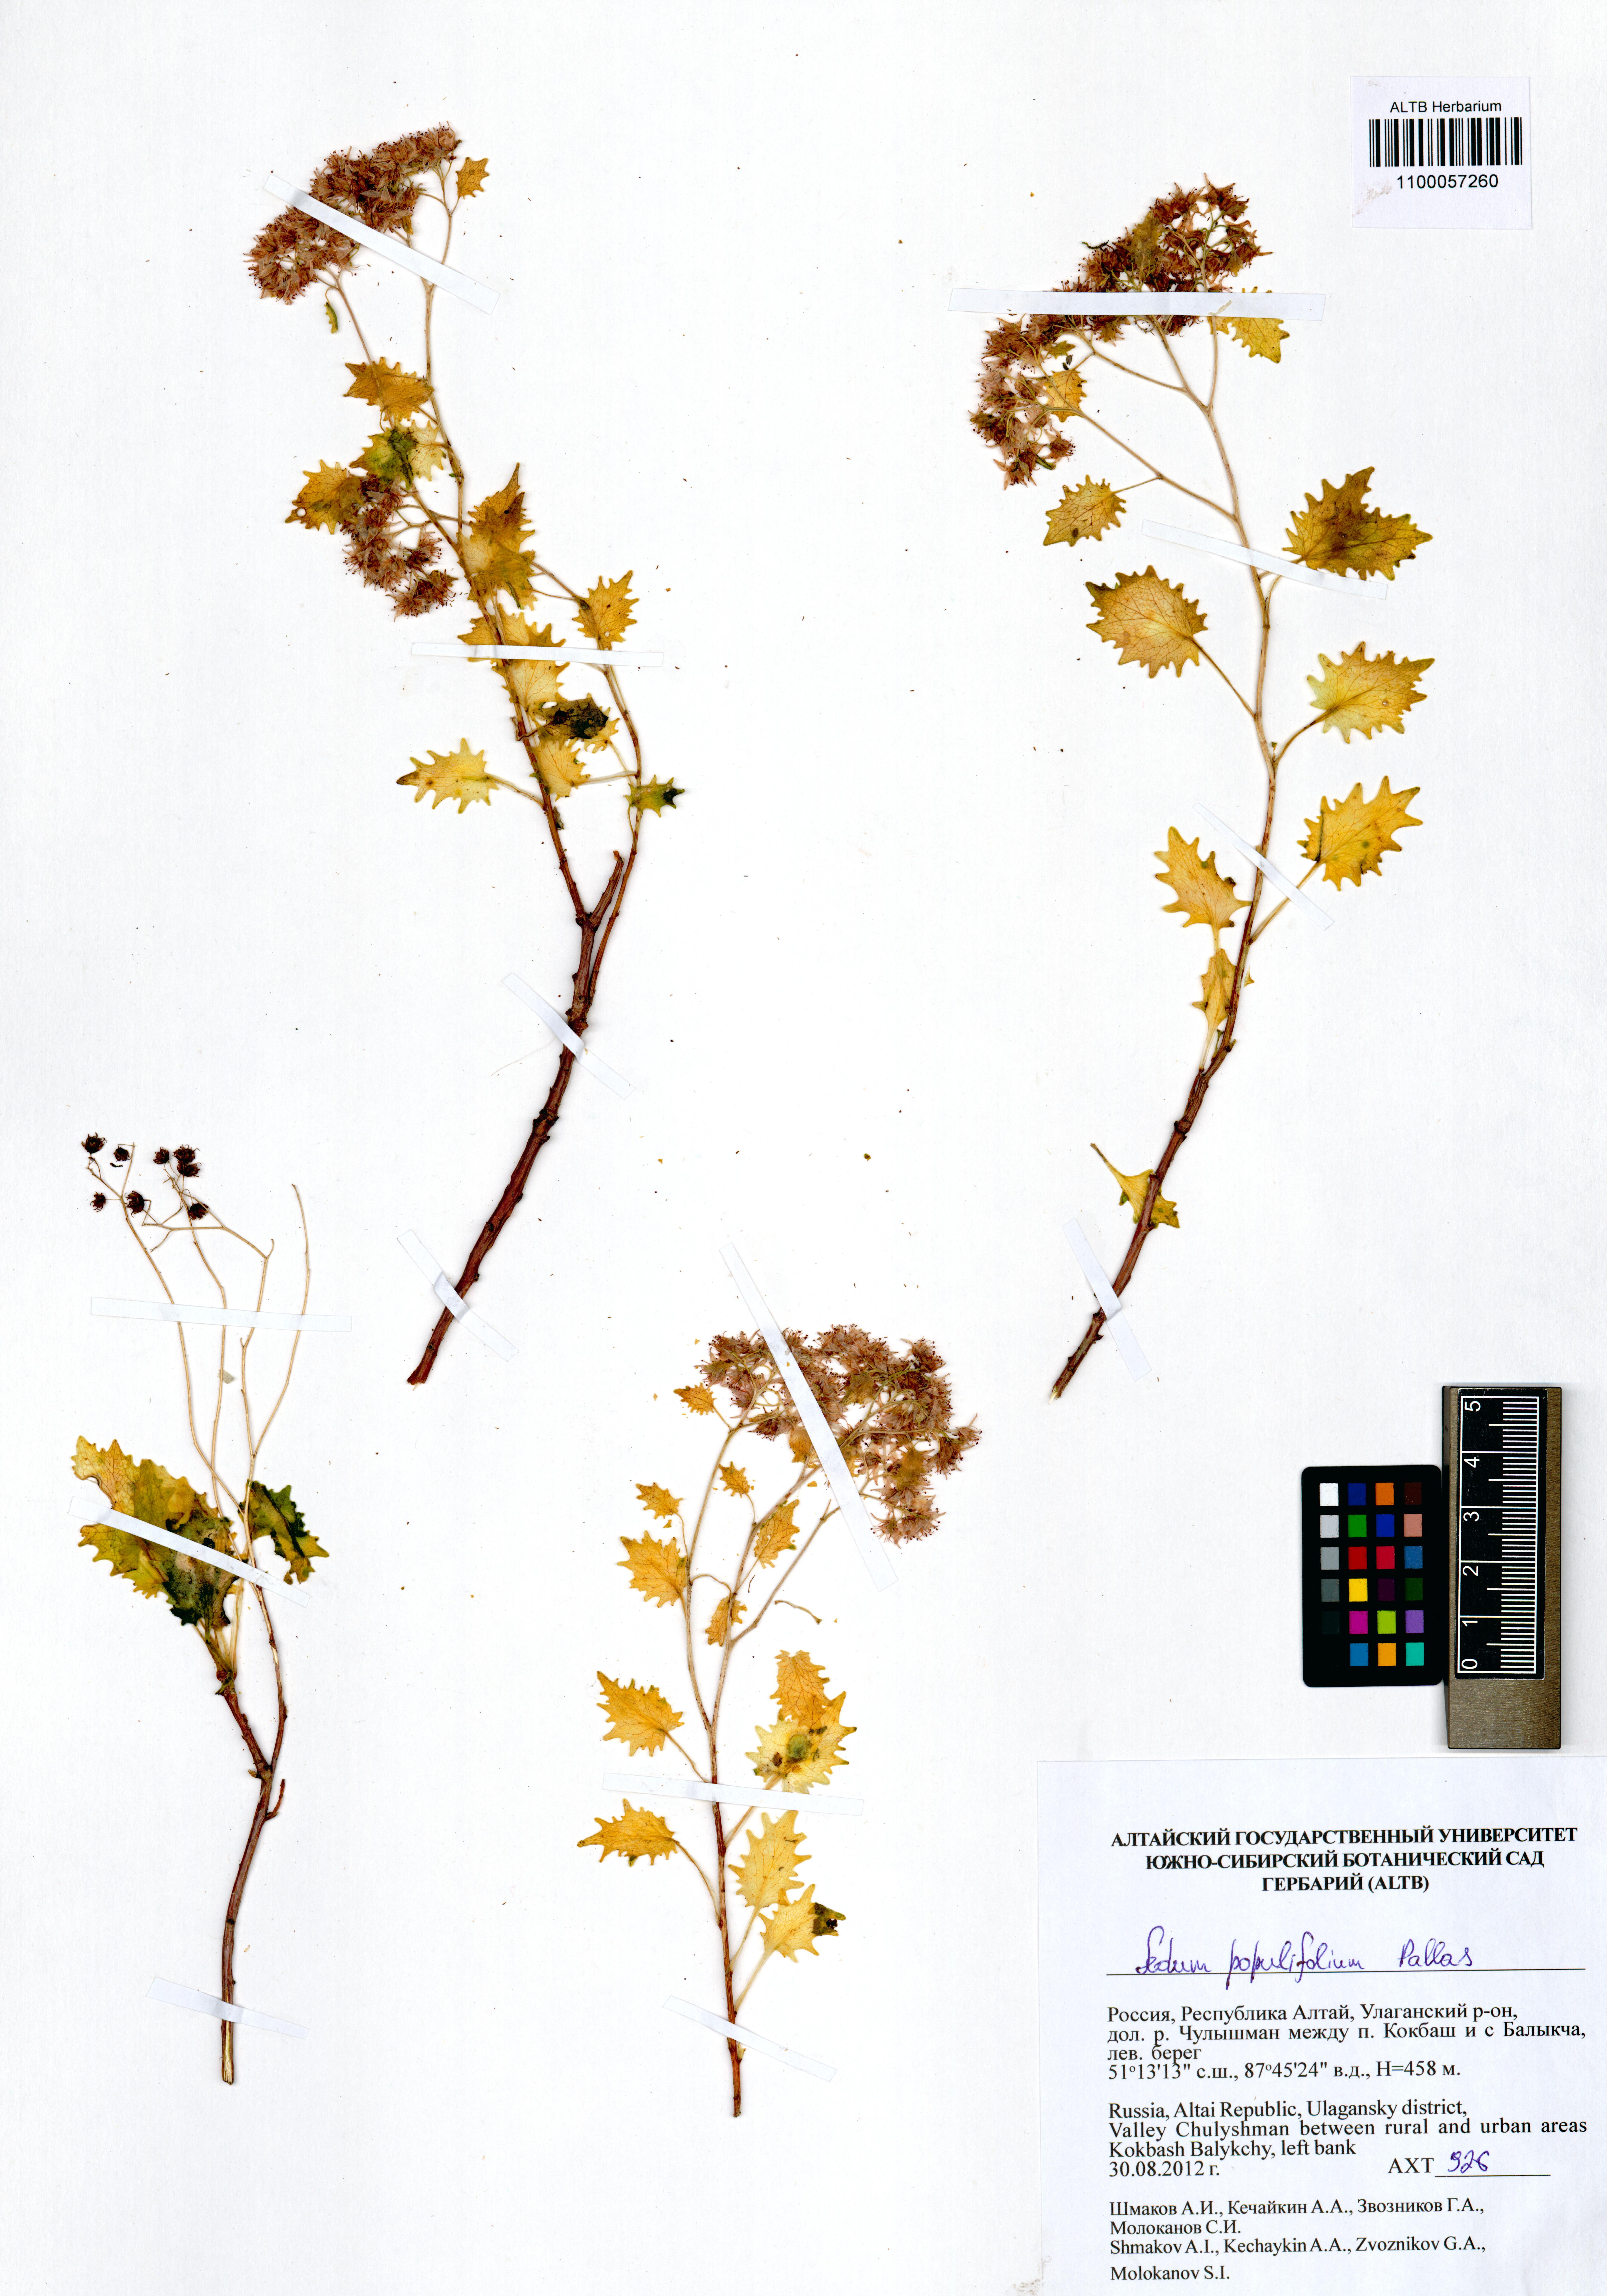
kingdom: Plantae
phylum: Tracheophyta
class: Magnoliopsida
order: Saxifragales
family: Crassulaceae
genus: Hylotelephium
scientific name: Hylotelephium populifolium
